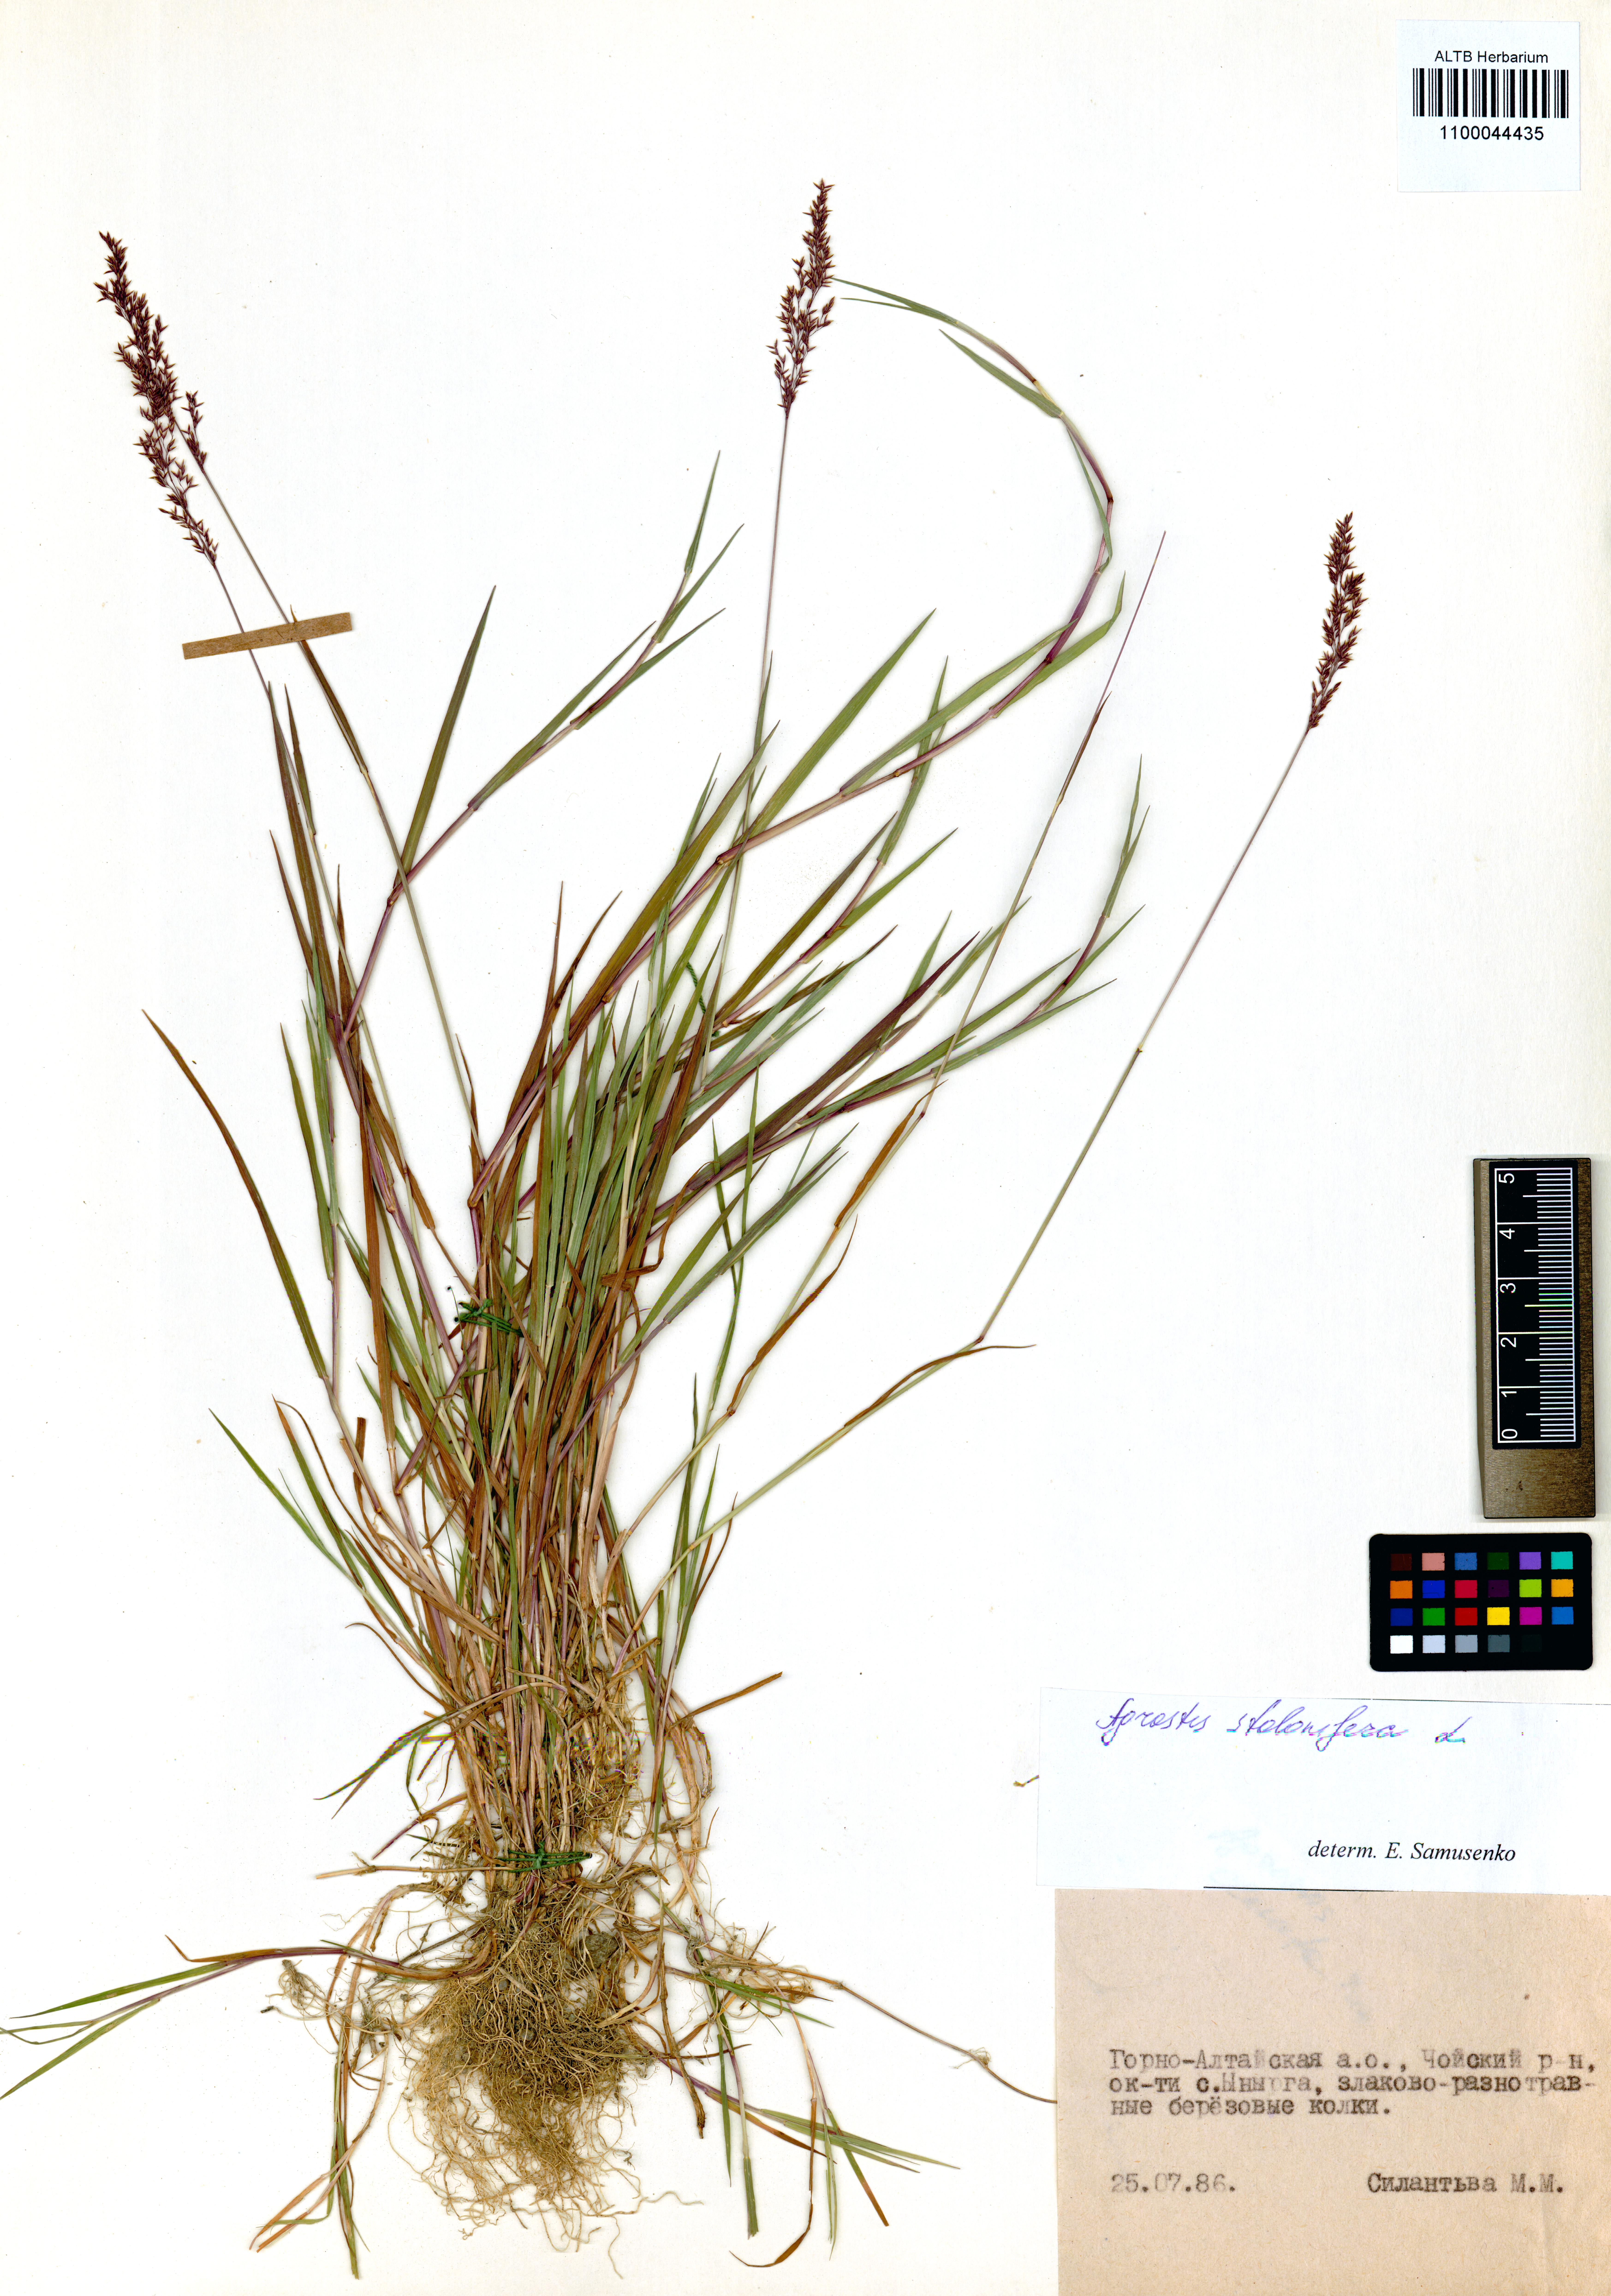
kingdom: Plantae
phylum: Tracheophyta
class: Liliopsida
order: Poales
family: Poaceae
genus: Agrostis
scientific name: Agrostis stolonifera
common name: Creeping bentgrass
